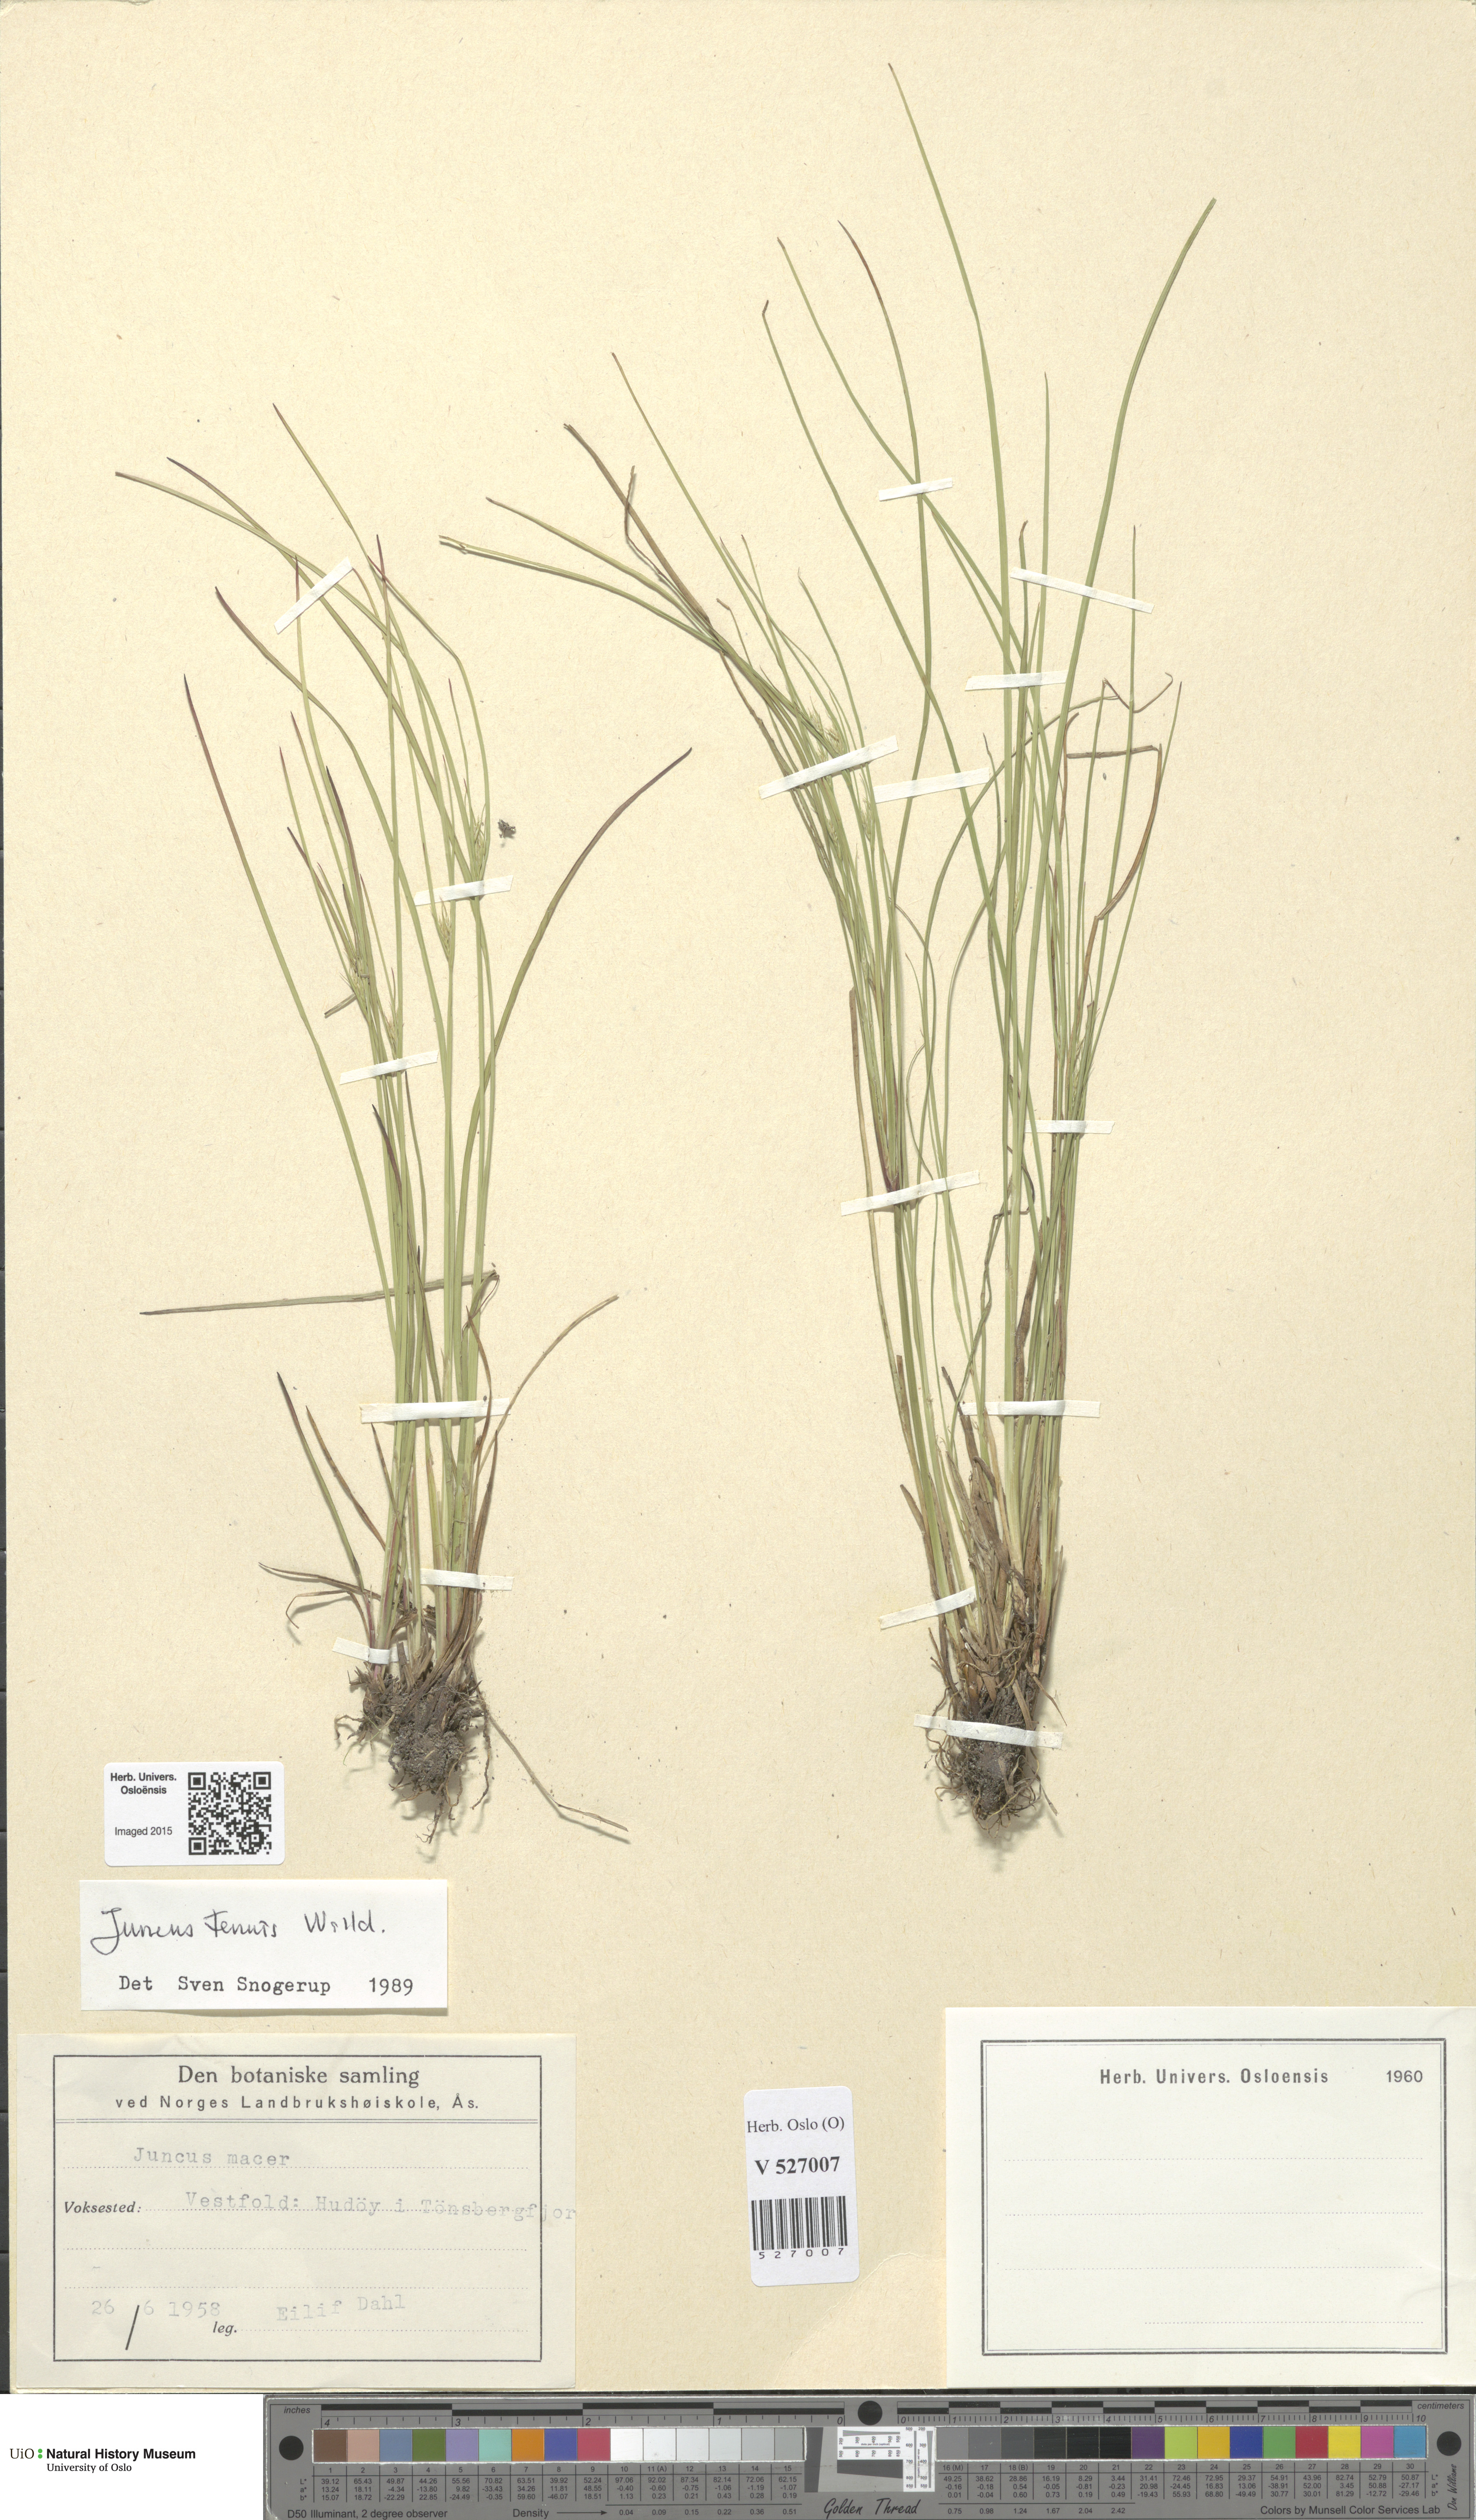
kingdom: Plantae
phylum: Tracheophyta
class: Liliopsida
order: Poales
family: Juncaceae
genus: Juncus
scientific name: Juncus tenuis
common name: Slender rush
